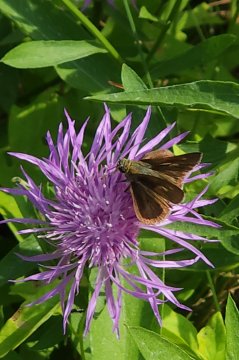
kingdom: Animalia
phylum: Arthropoda
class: Insecta
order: Lepidoptera
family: Hesperiidae
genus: Polites
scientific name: Polites egeremet
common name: Northern Broken-Dash
